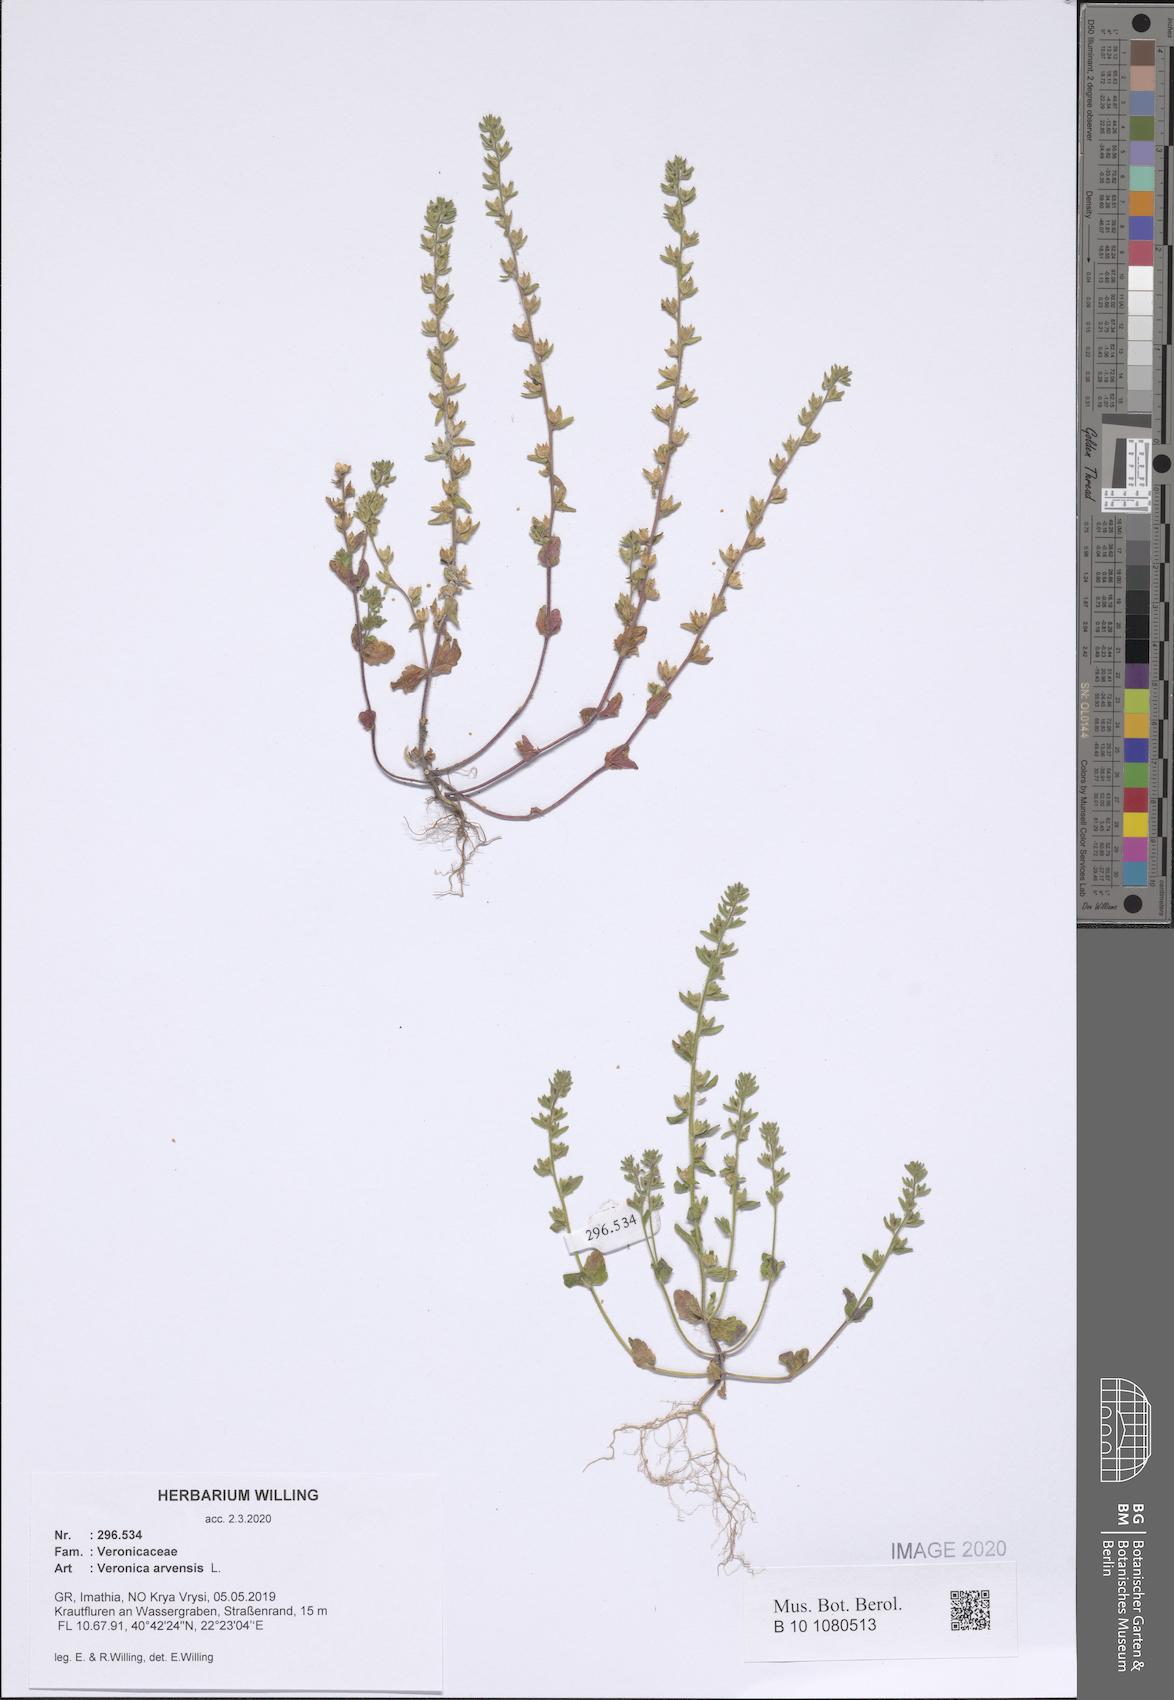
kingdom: Plantae
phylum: Tracheophyta
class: Magnoliopsida
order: Lamiales
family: Plantaginaceae
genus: Veronica
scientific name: Veronica arvensis
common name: Corn speedwell
